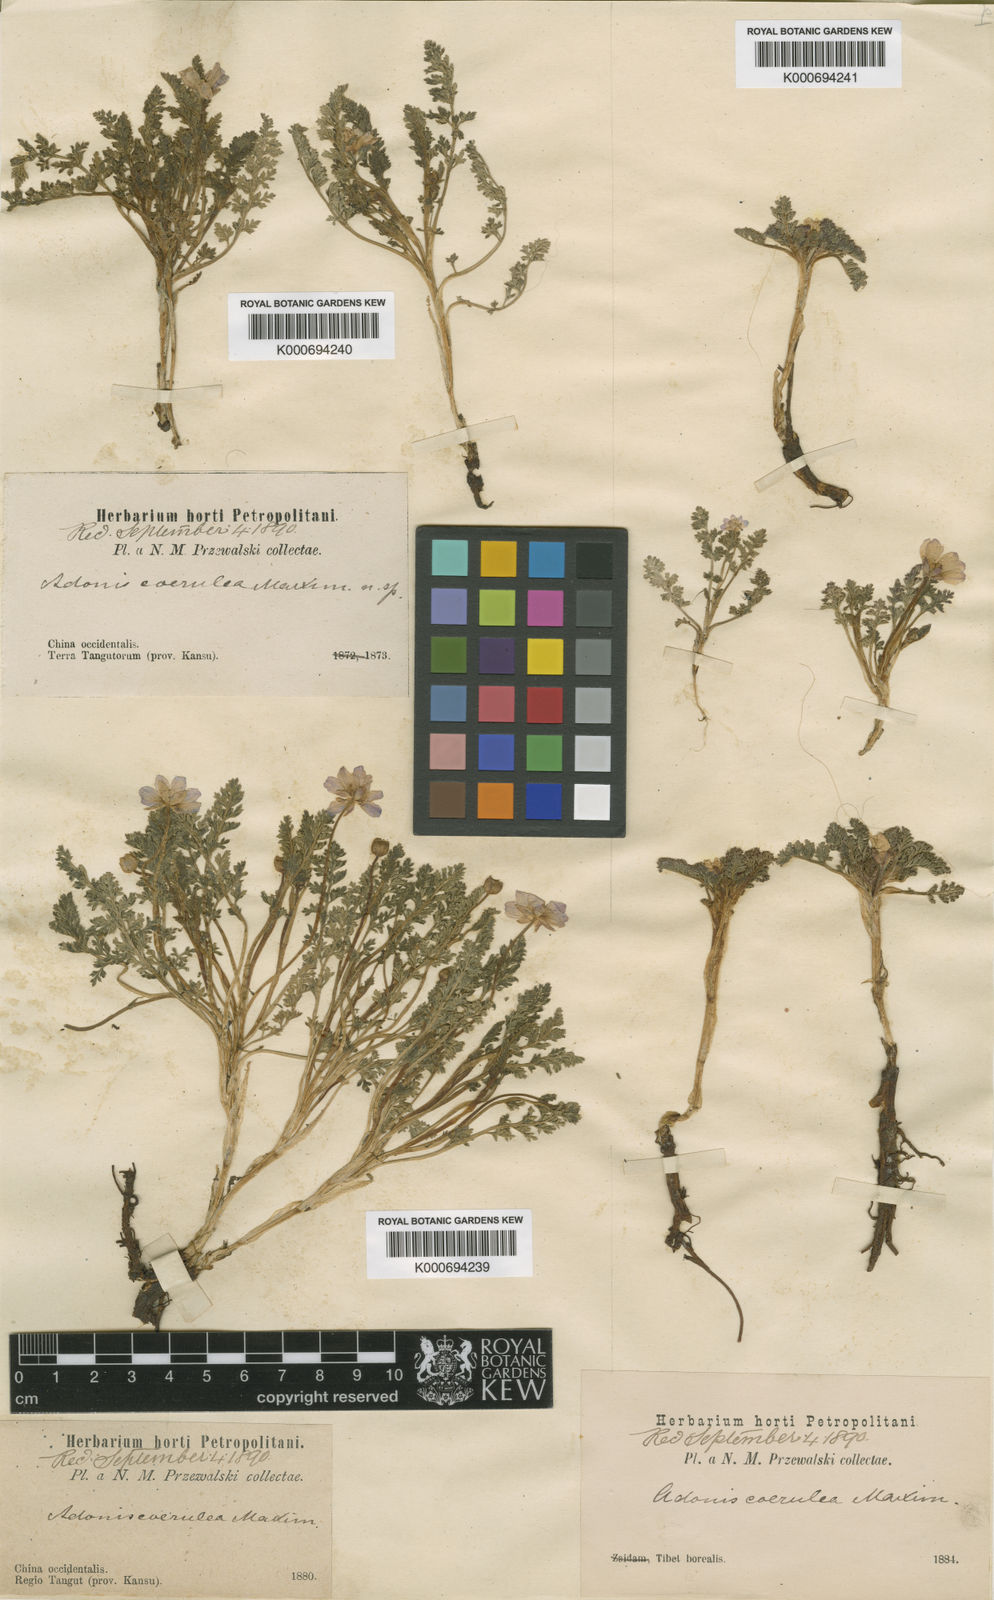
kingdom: Plantae
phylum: Tracheophyta
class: Magnoliopsida
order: Ranunculales
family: Ranunculaceae
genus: Adonis
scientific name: Adonis coerulea
